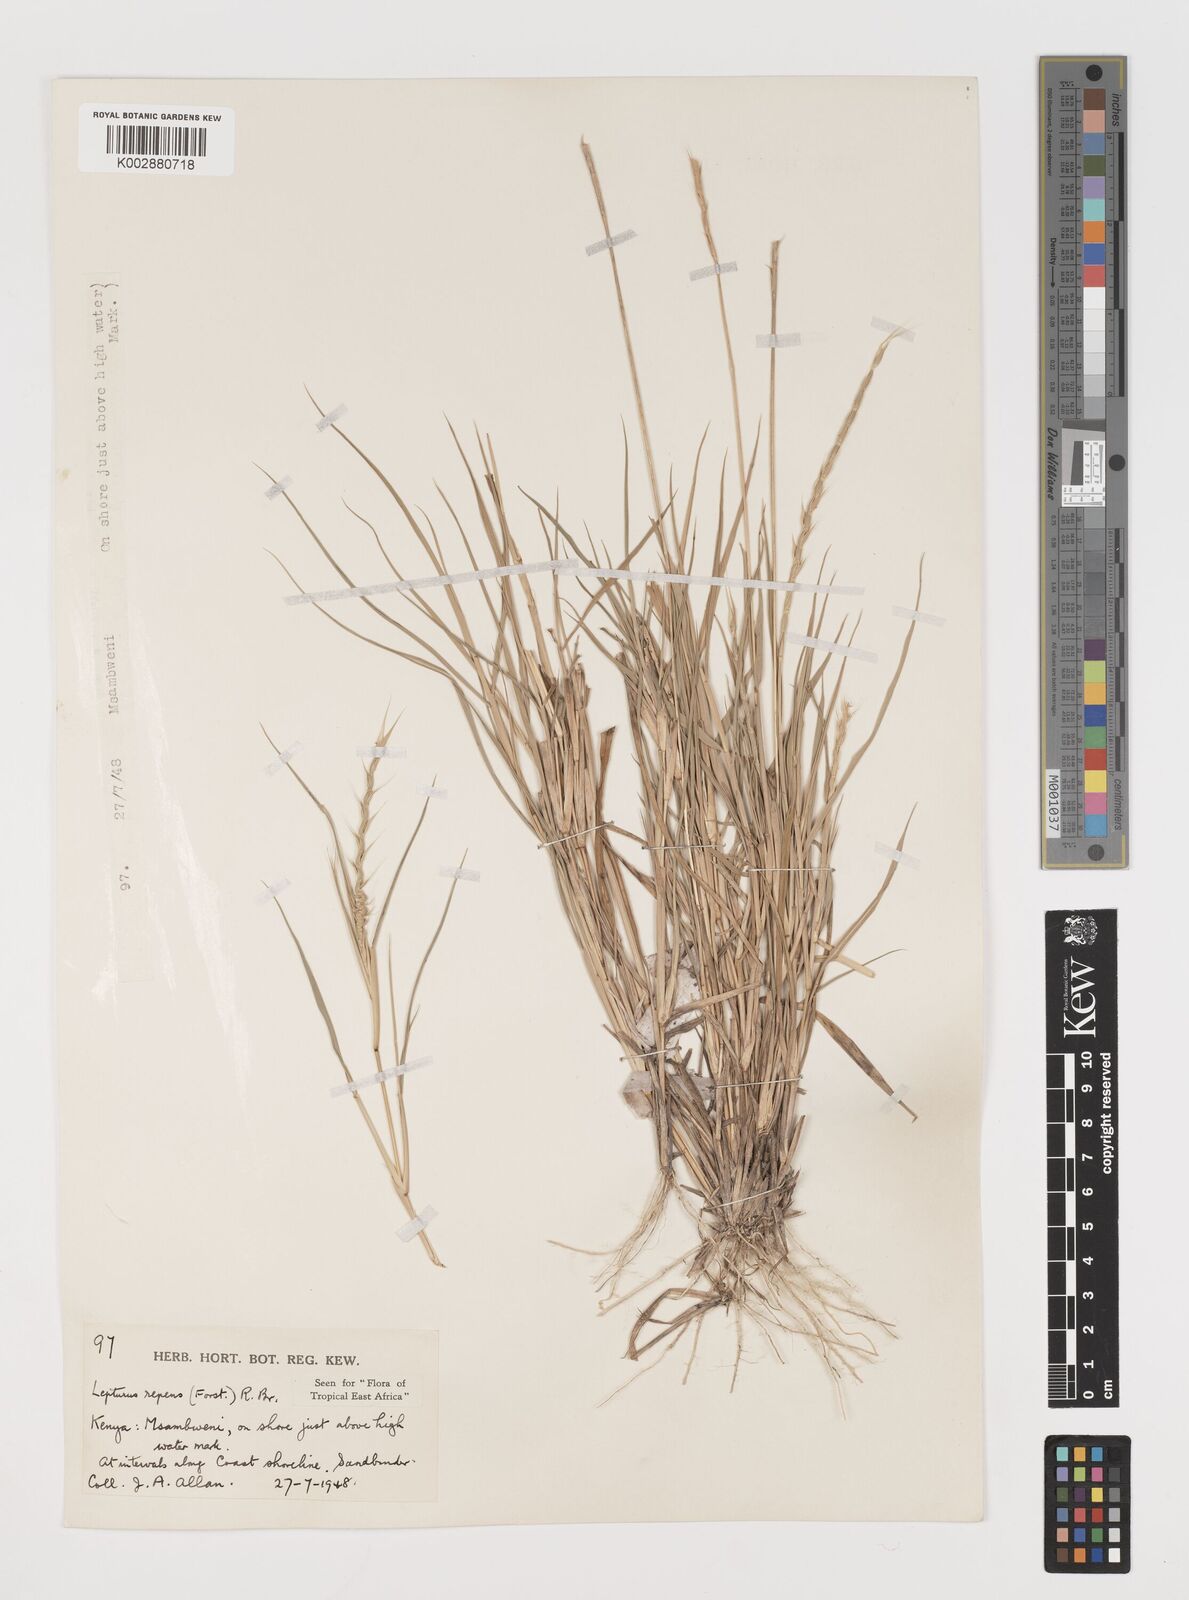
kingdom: Plantae
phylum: Tracheophyta
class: Liliopsida
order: Poales
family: Poaceae
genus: Lepturus
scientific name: Lepturus repens
